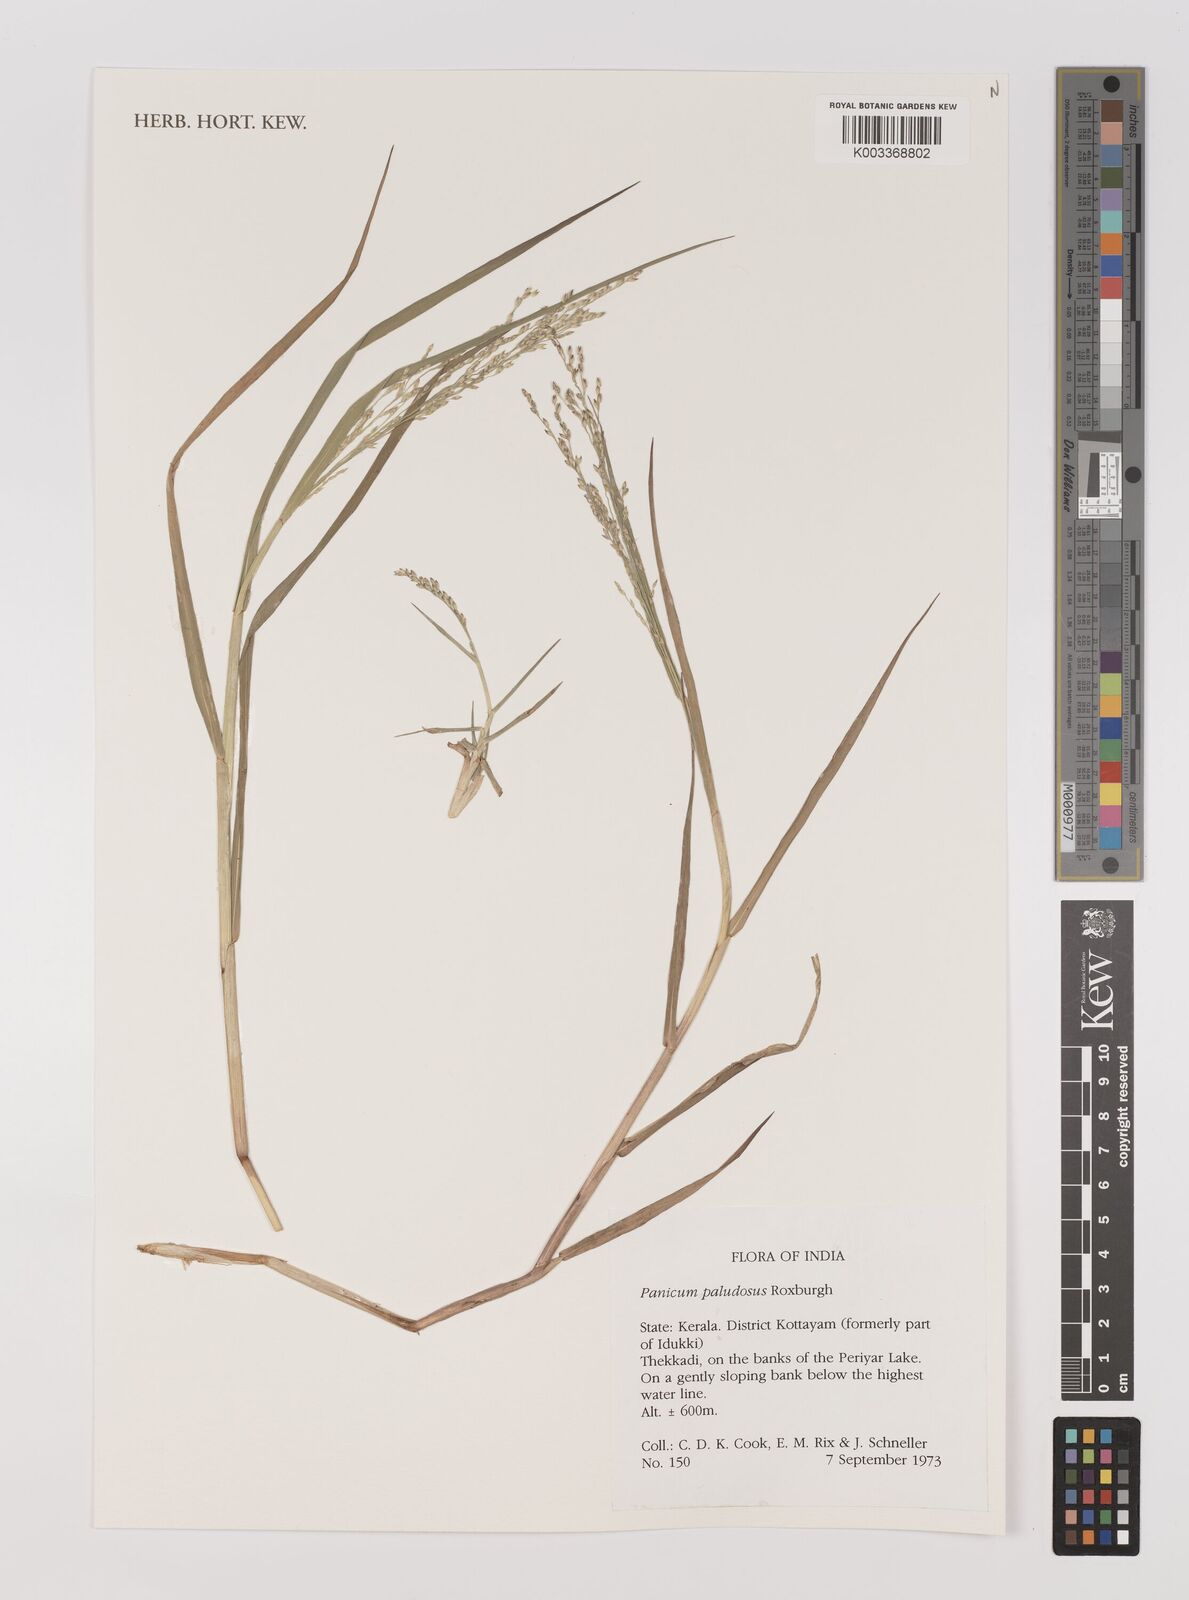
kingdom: Plantae
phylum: Tracheophyta
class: Liliopsida
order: Poales
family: Poaceae
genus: Louisiella
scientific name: Louisiella paludosa
